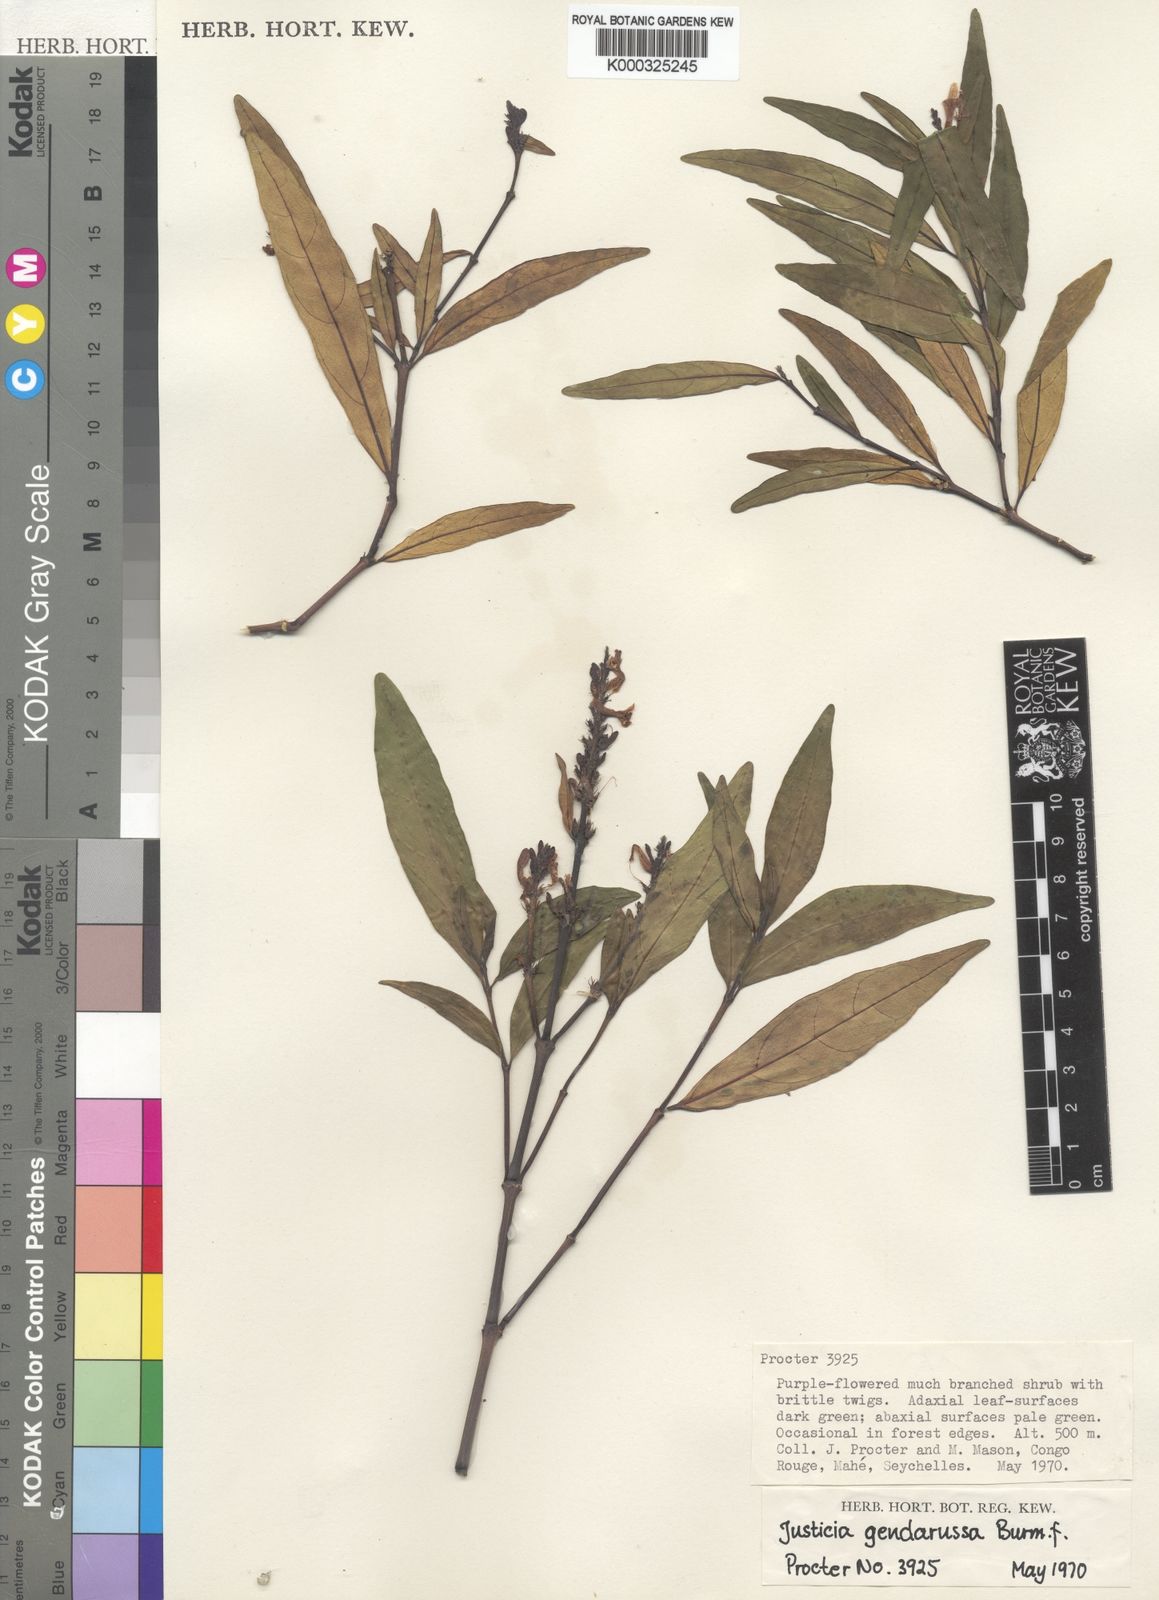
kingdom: Plantae
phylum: Tracheophyta
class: Magnoliopsida
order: Lamiales
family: Acanthaceae
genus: Justicia
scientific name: Justicia gendarussa
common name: Warer willow
